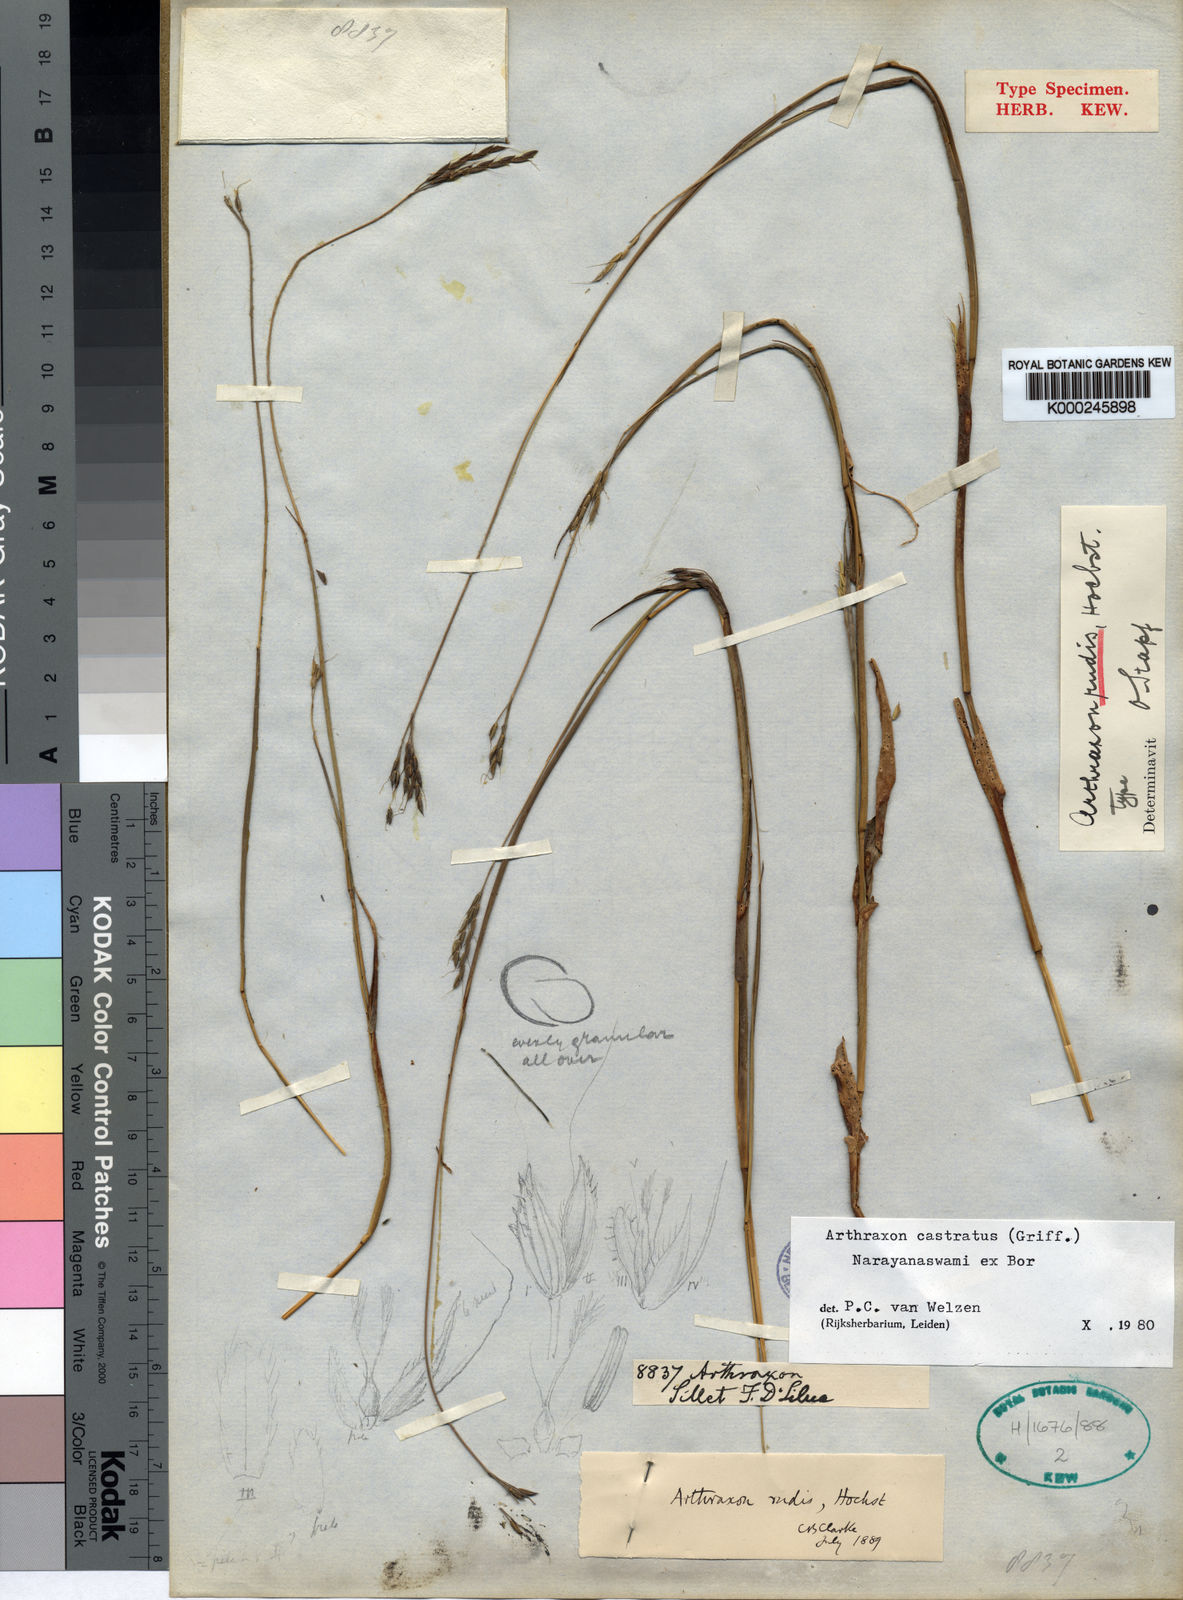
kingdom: Plantae
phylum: Tracheophyta
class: Liliopsida
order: Poales
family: Poaceae
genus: Arthraxon
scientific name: Arthraxon castratus
